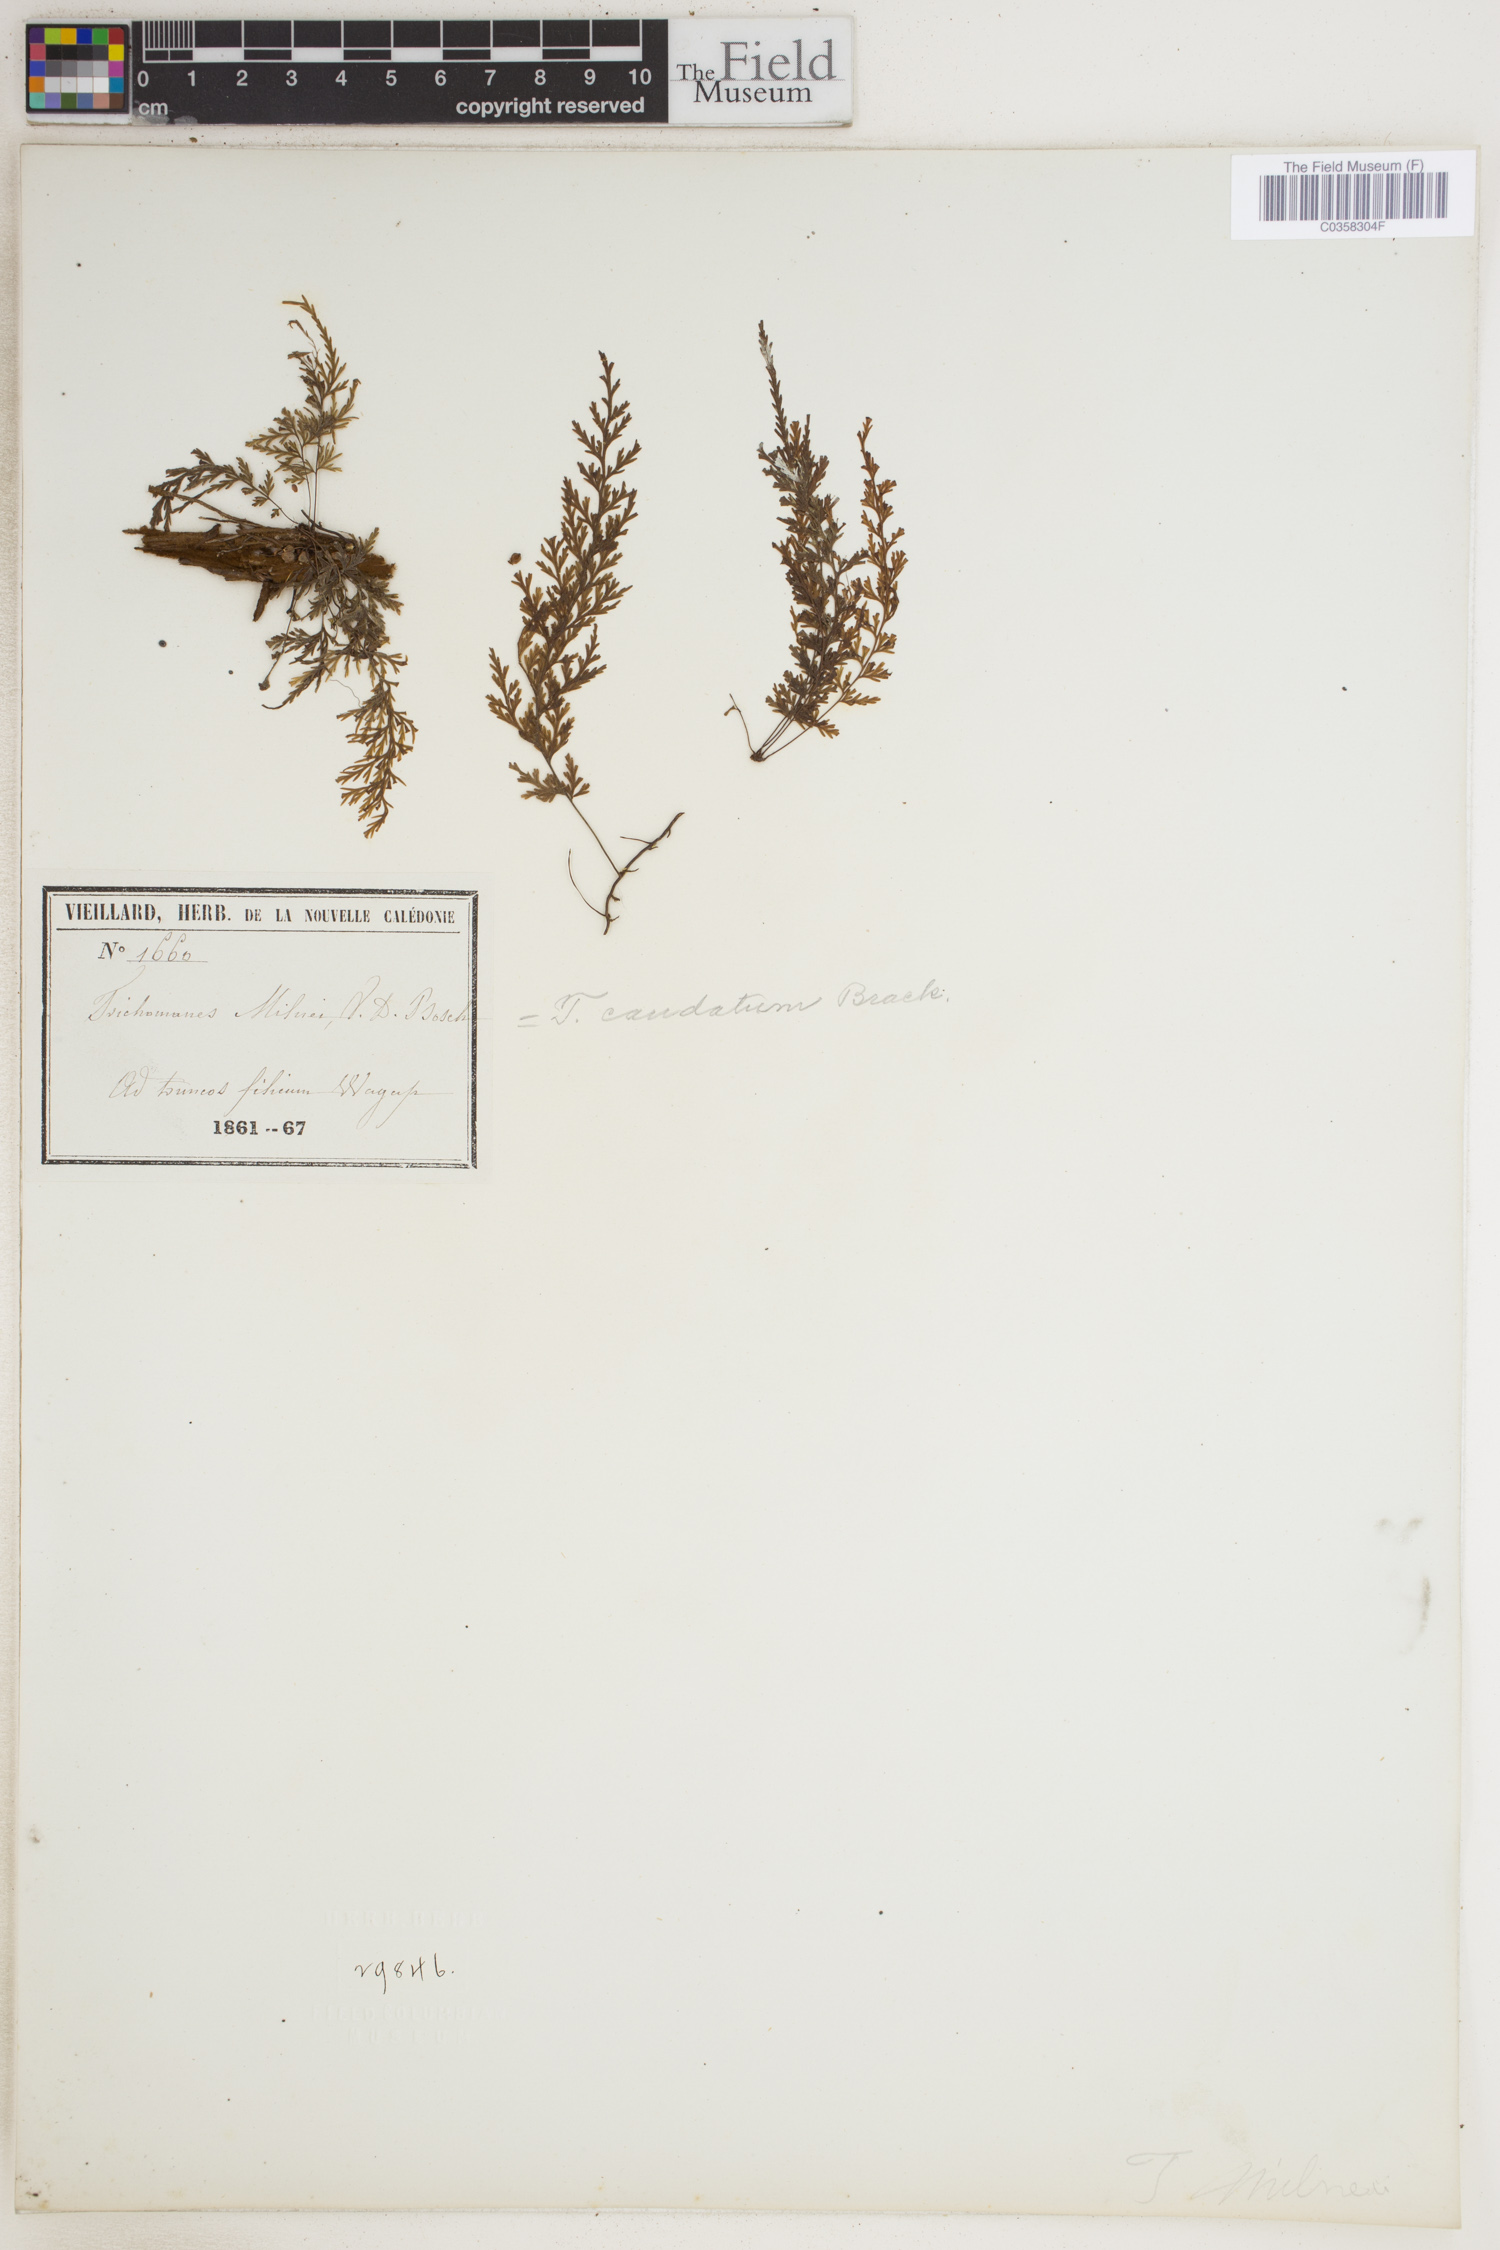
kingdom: Plantae
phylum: Tracheophyta
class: Polypodiopsida
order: Hymenophyllales
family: Hymenophyllaceae
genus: Abrodictyum
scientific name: Abrodictyum caudatum
